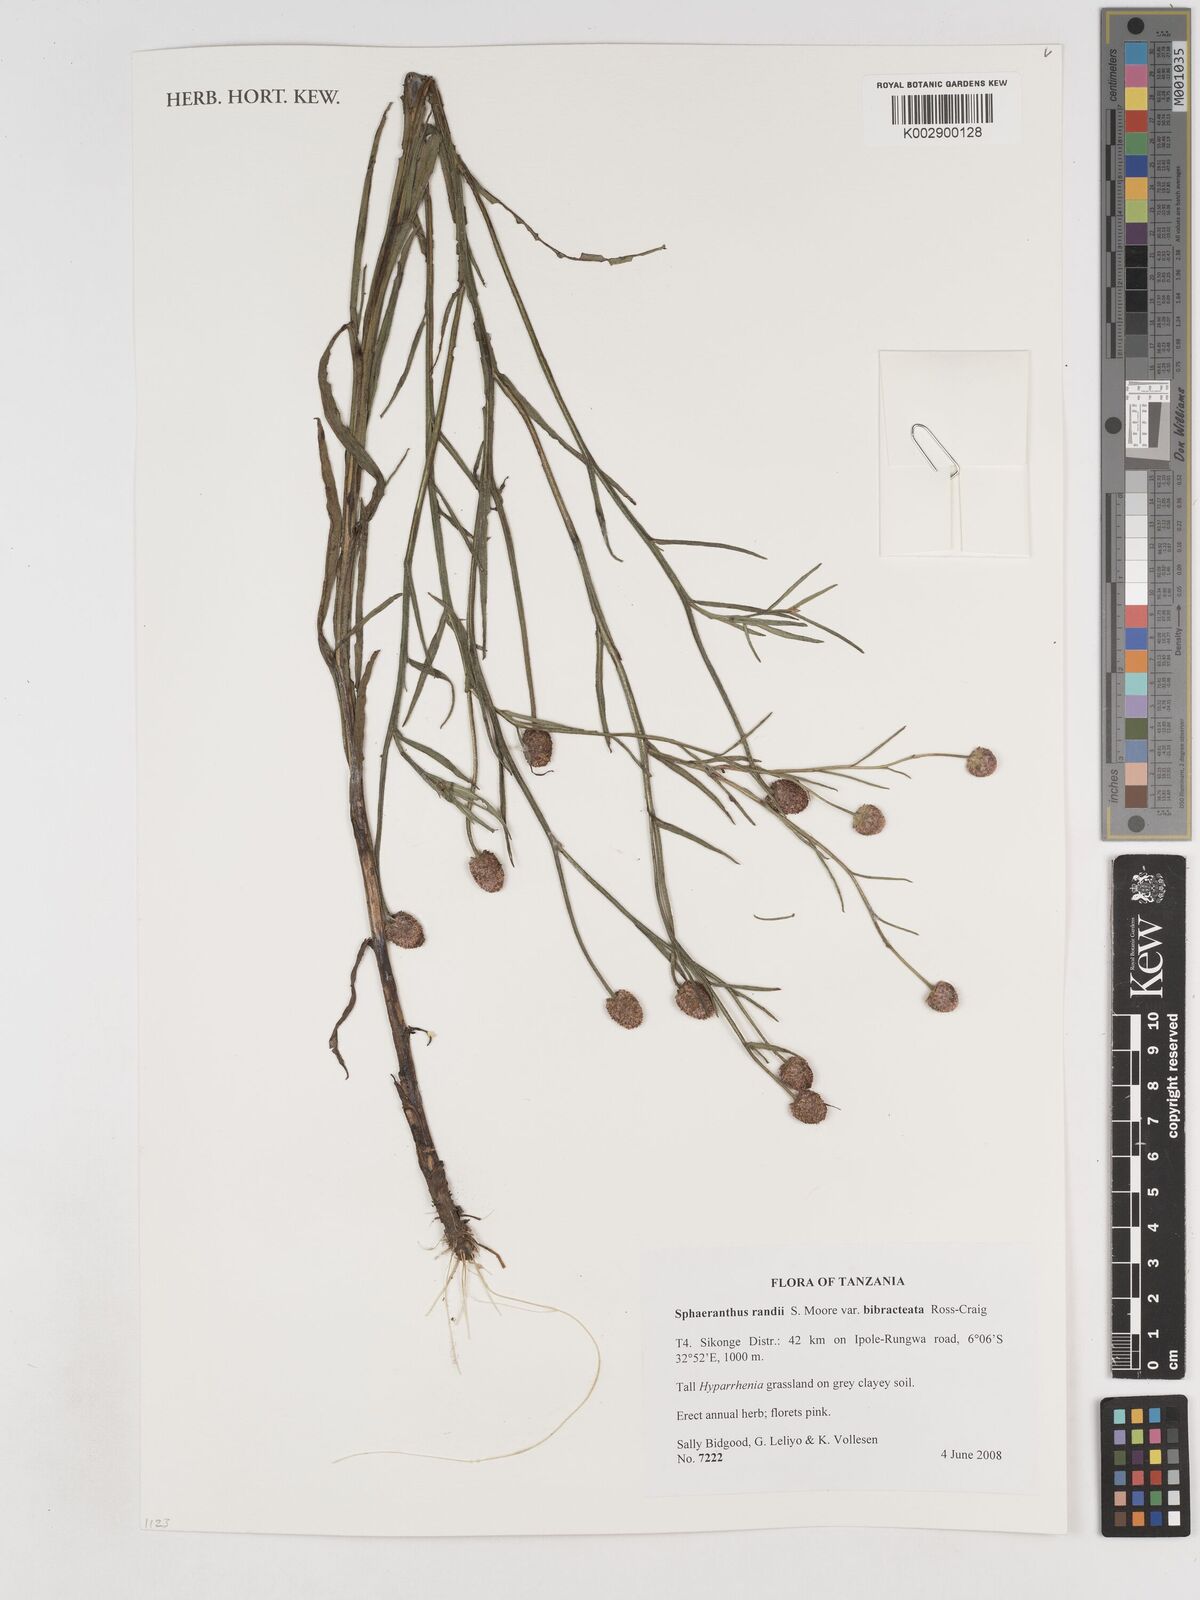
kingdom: Plantae
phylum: Tracheophyta
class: Magnoliopsida
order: Asterales
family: Asteraceae
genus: Sphaeranthus
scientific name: Sphaeranthus randii
